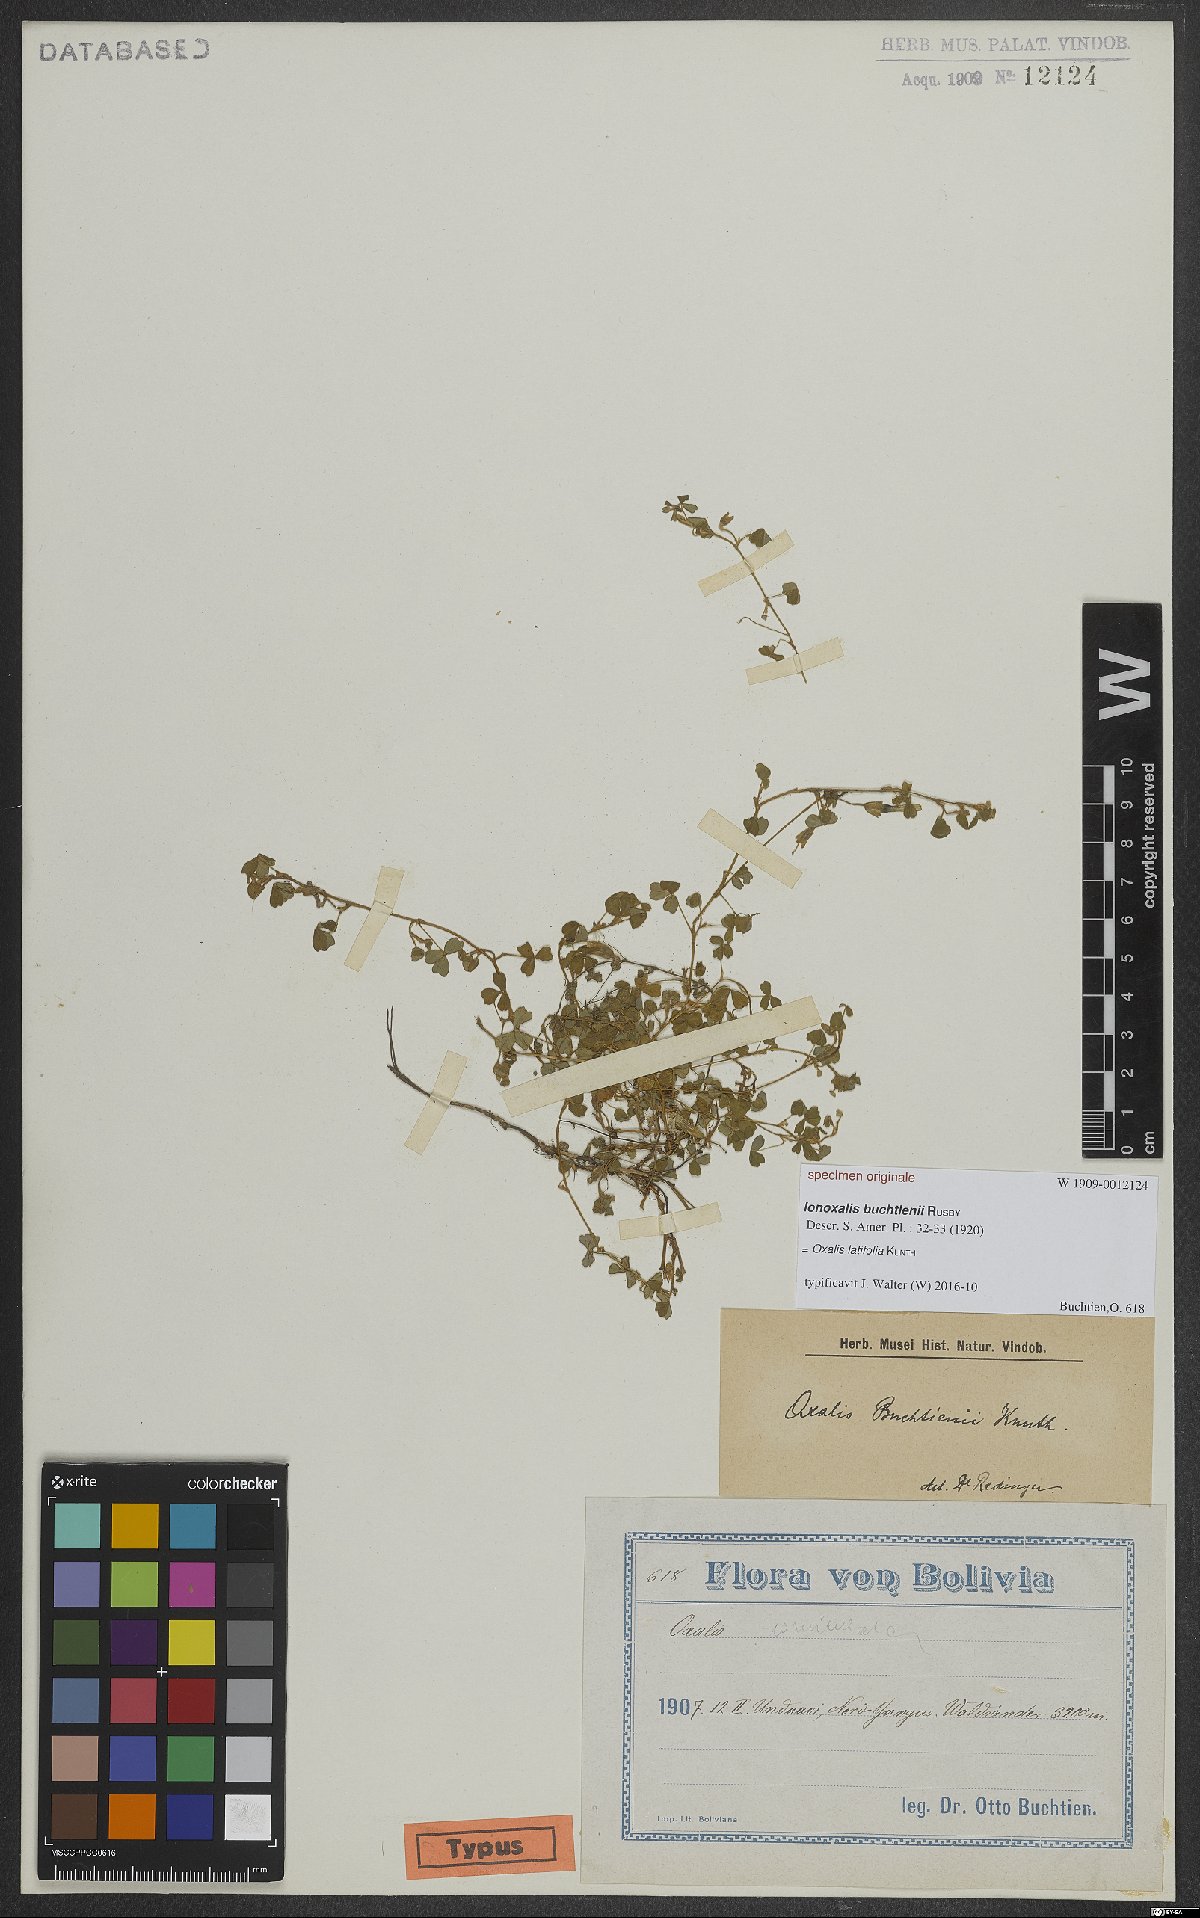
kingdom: Plantae
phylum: Tracheophyta
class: Magnoliopsida
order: Oxalidales
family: Oxalidaceae
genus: Oxalis
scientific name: Oxalis latifolia
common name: Garden pink-sorrel
